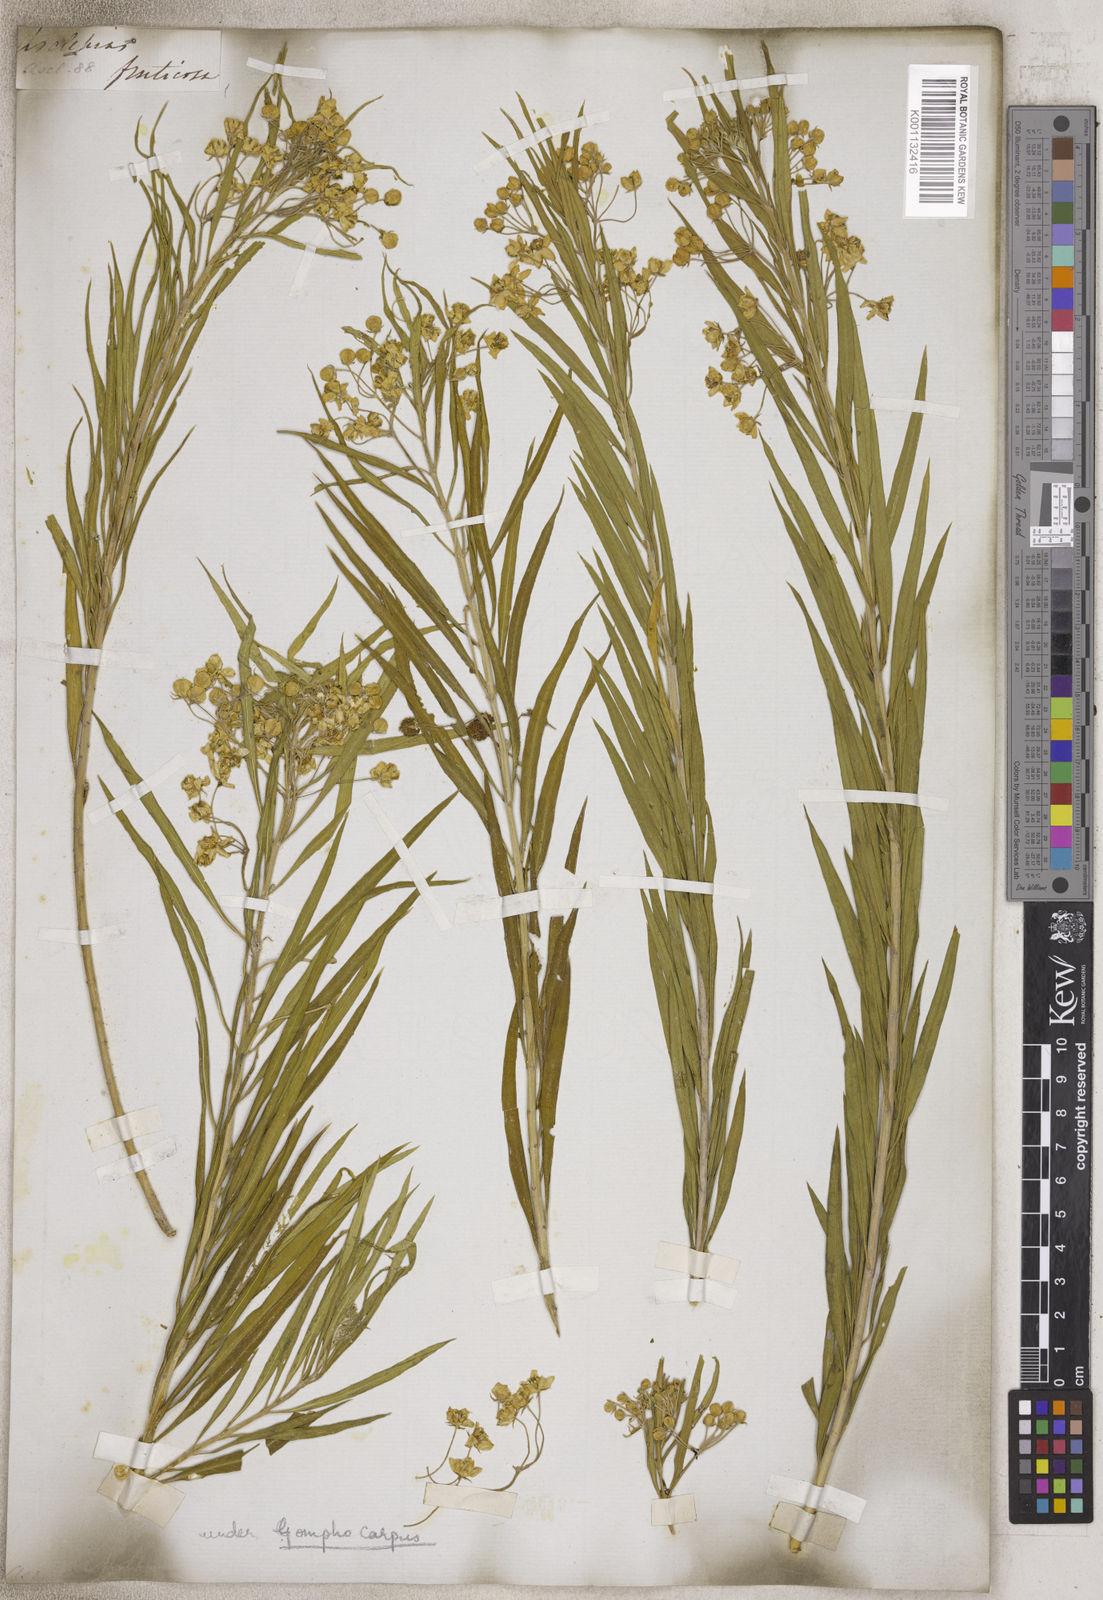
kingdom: Plantae
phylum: Tracheophyta
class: Magnoliopsida
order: Gentianales
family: Apocynaceae
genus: Gomphocarpus
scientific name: Gomphocarpus
